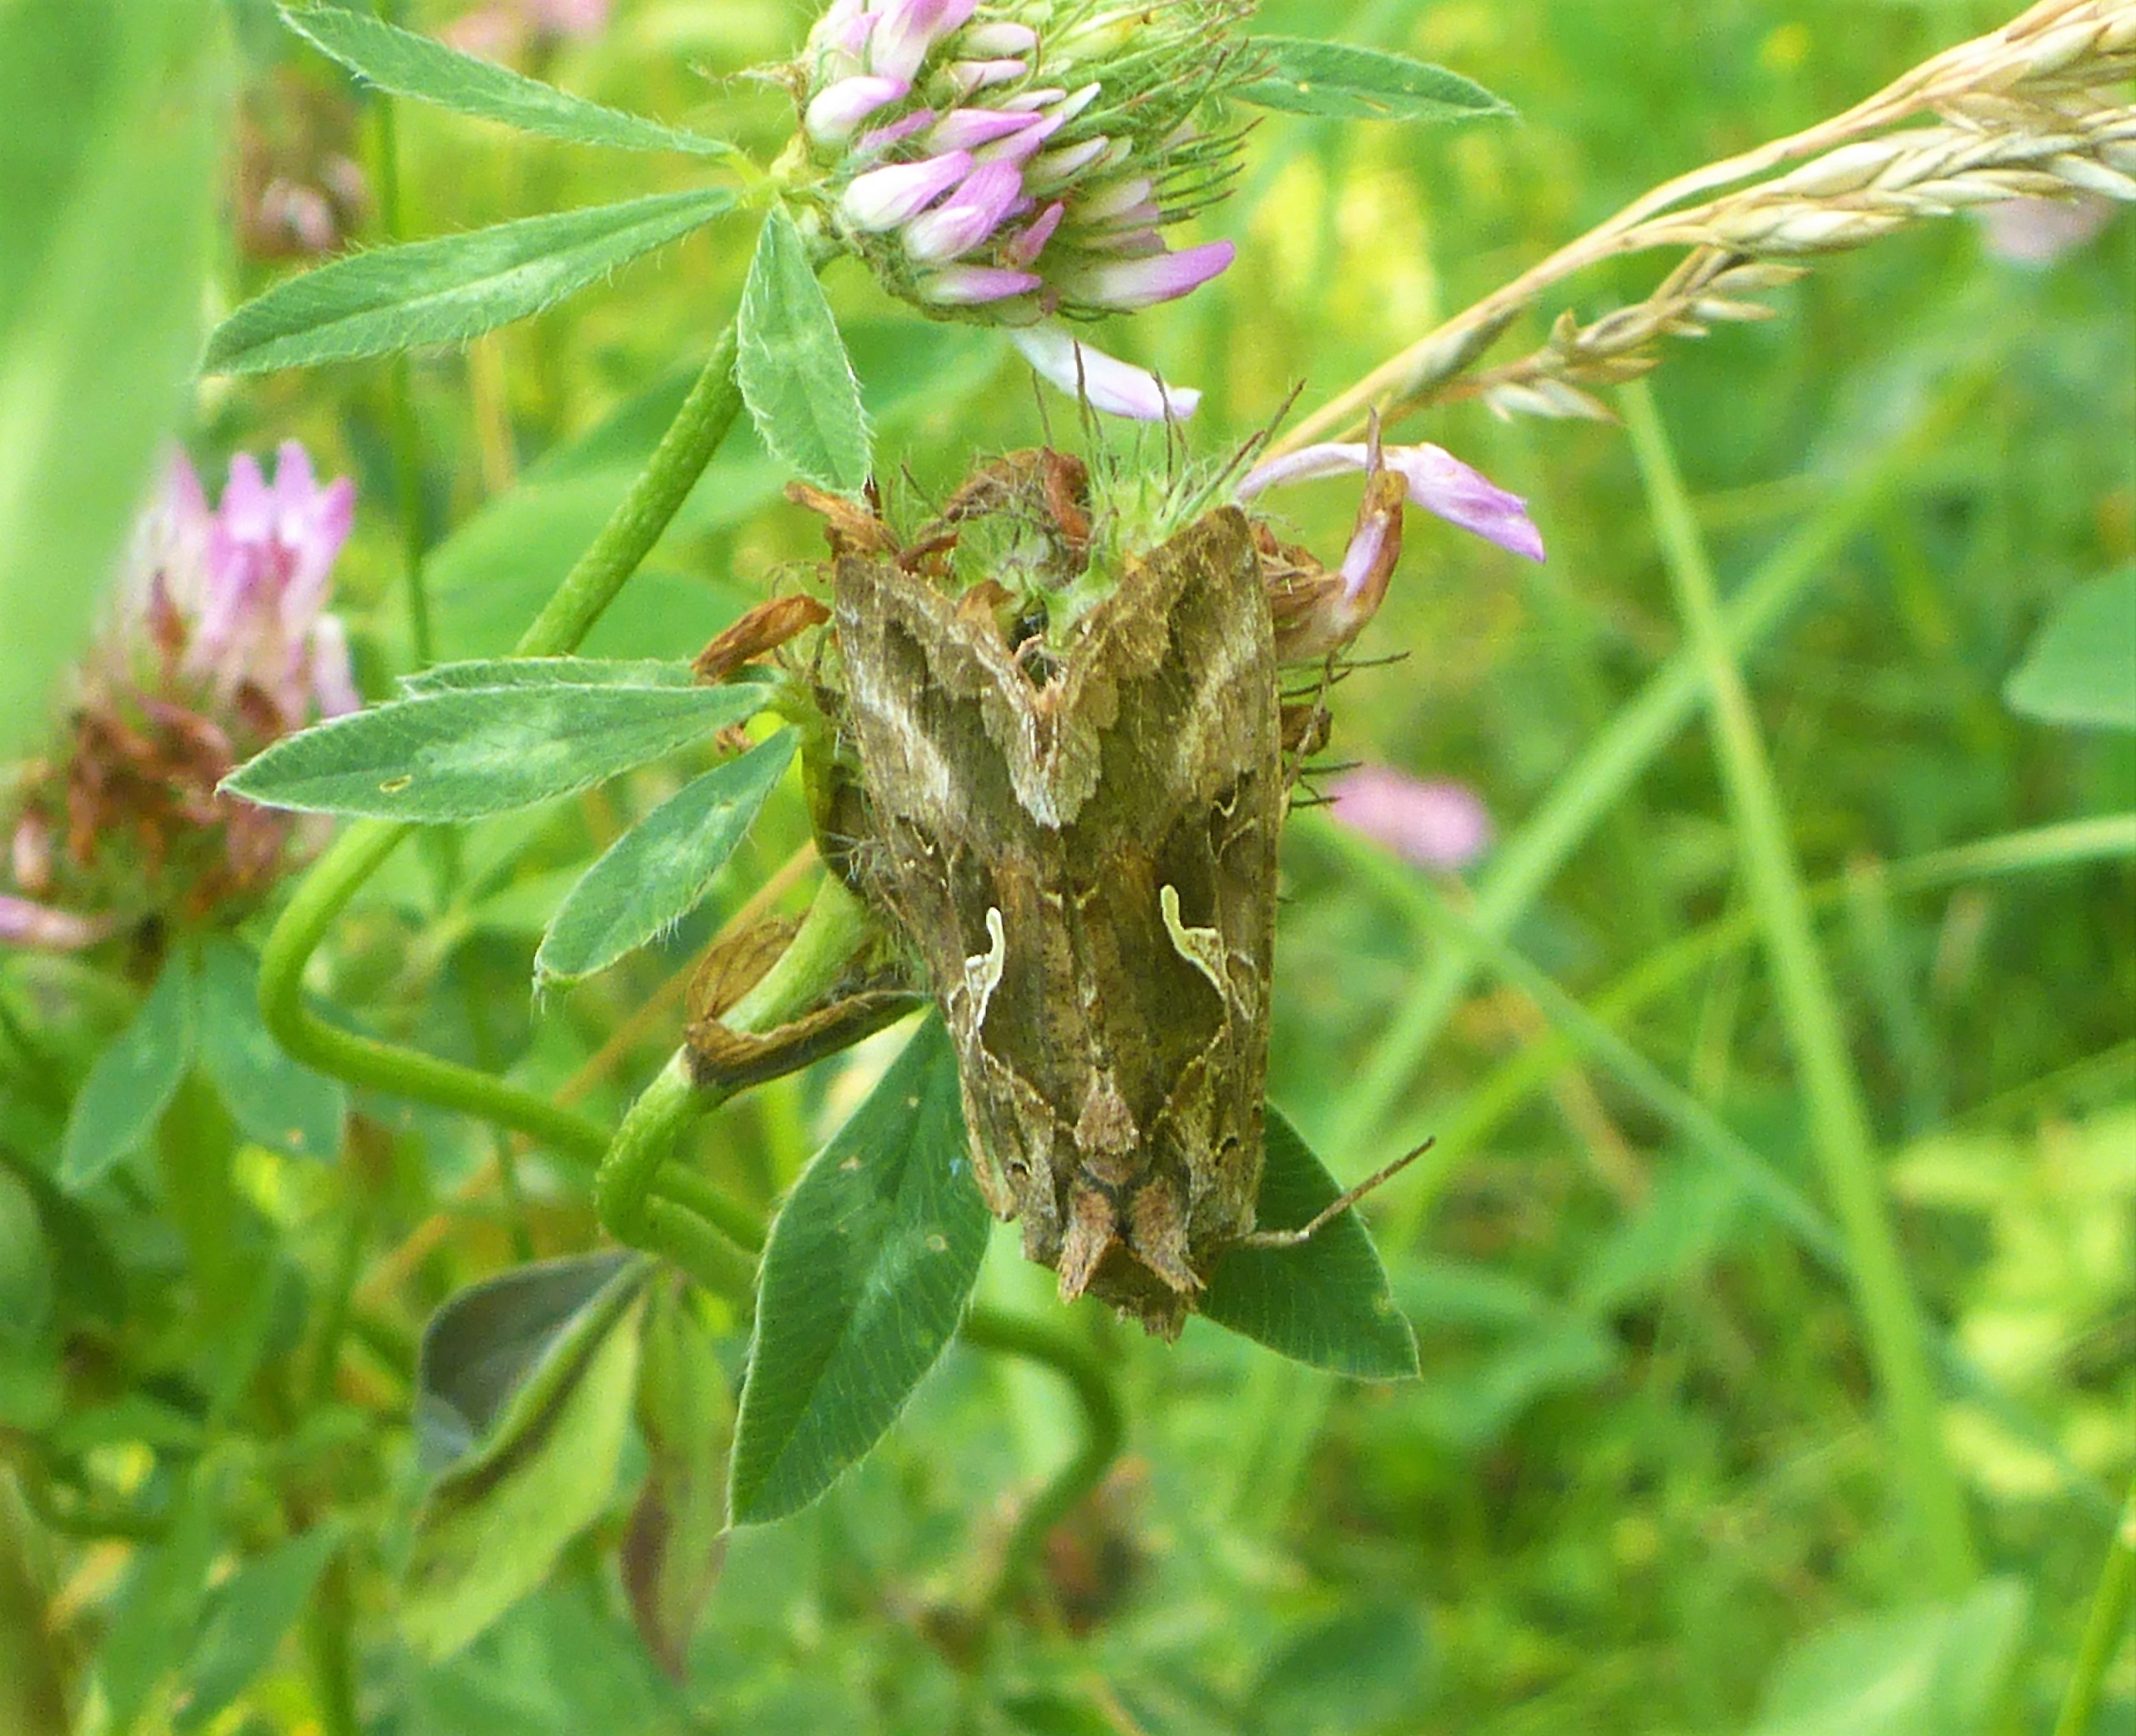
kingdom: Animalia
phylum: Arthropoda
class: Insecta
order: Lepidoptera
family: Noctuidae
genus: Autographa
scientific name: Autographa gamma
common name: Gammaugle
